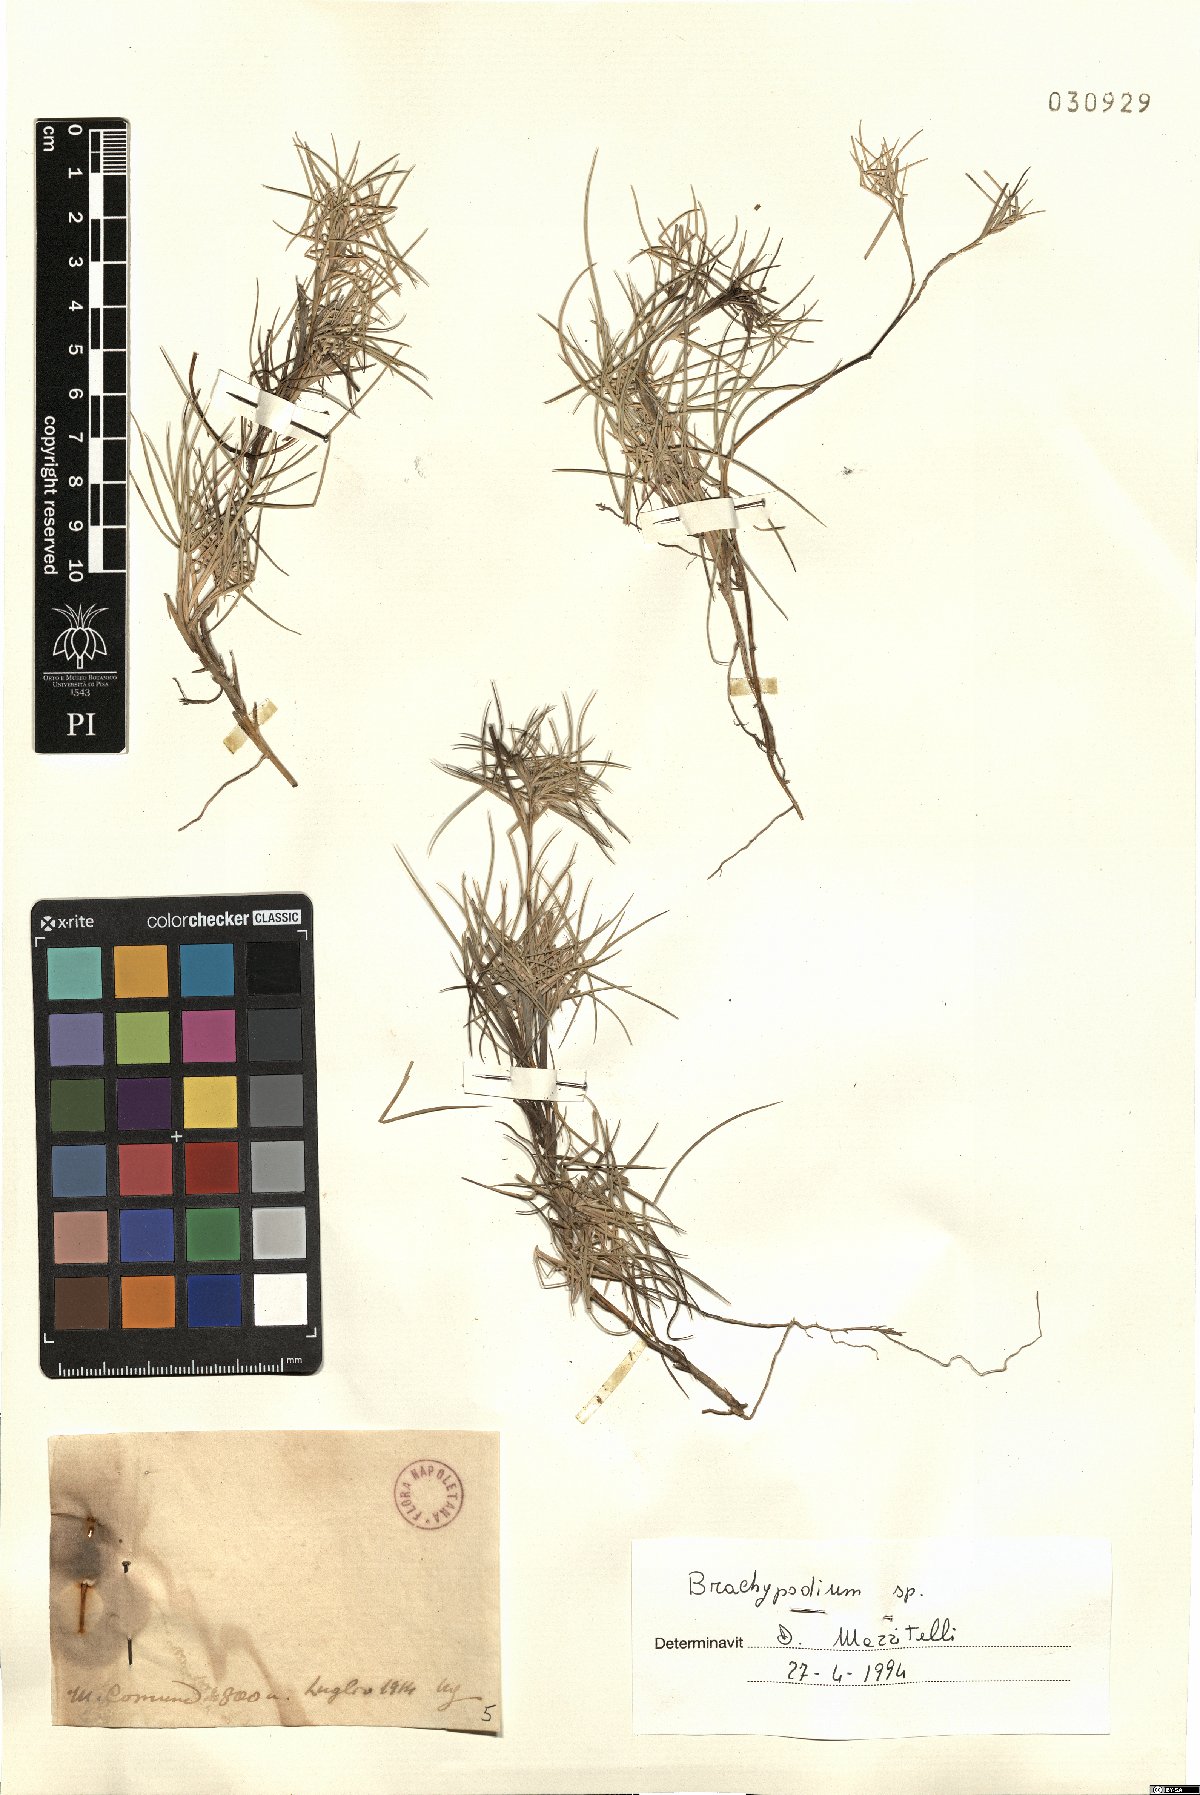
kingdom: Plantae
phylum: Tracheophyta
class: Liliopsida
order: Poales
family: Poaceae
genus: Brachypodium
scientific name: Brachypodium
